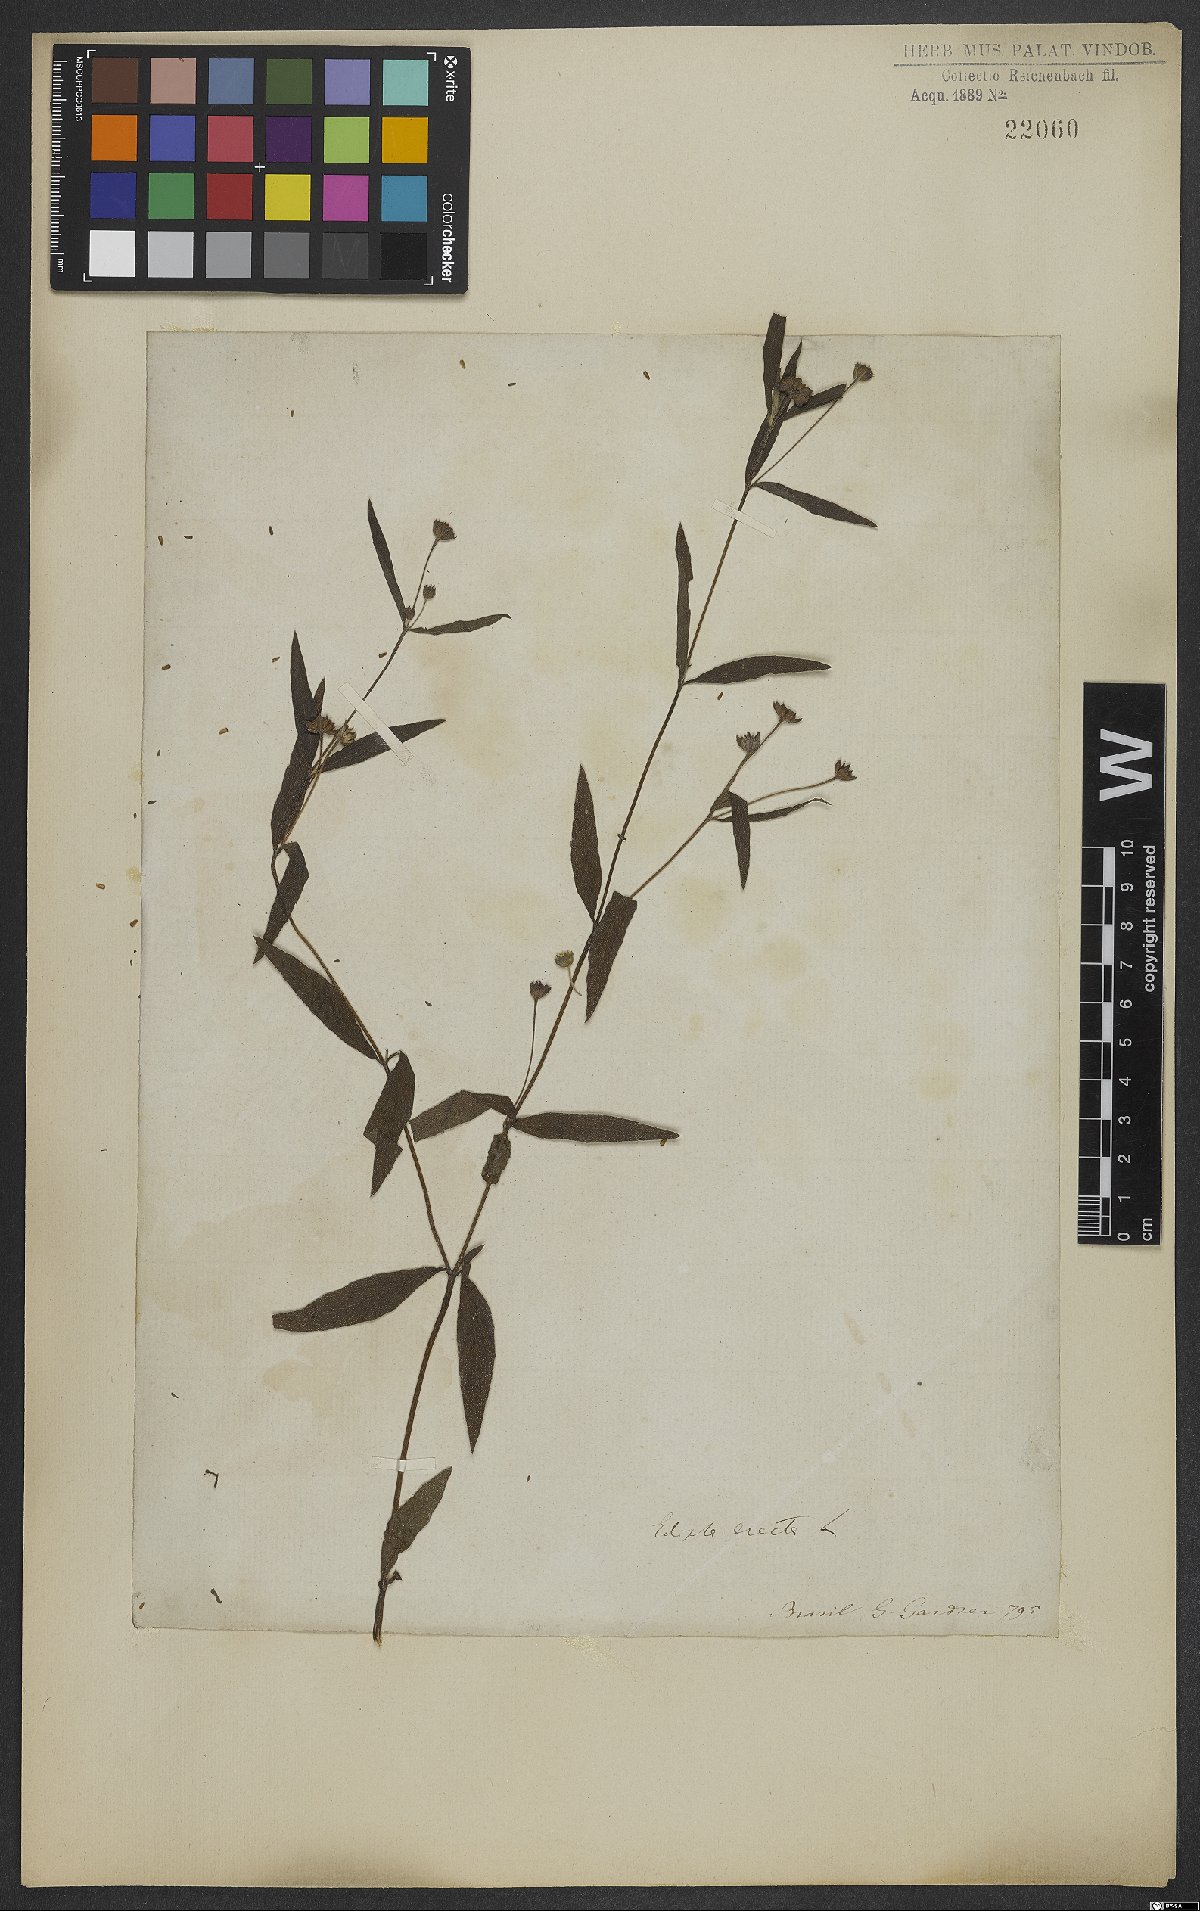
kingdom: Plantae
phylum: Tracheophyta
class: Magnoliopsida
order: Asterales
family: Asteraceae
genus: Eclipta
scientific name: Eclipta alba
